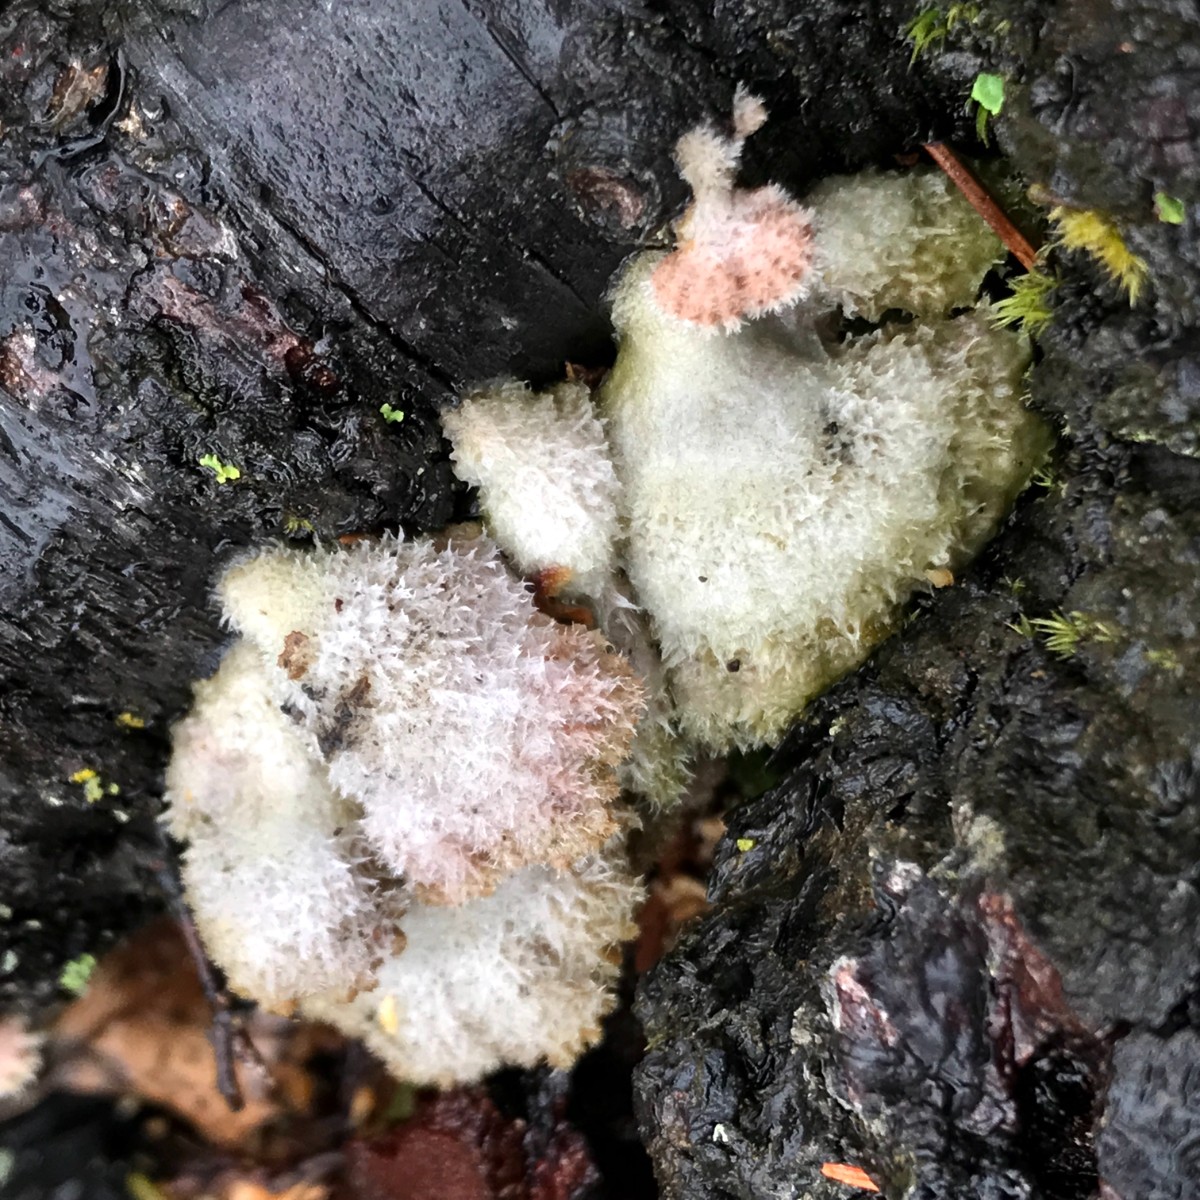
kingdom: Fungi
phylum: Basidiomycota
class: Agaricomycetes
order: Agaricales
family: Schizophyllaceae
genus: Schizophyllum
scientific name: Schizophyllum commune
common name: kløvblad
